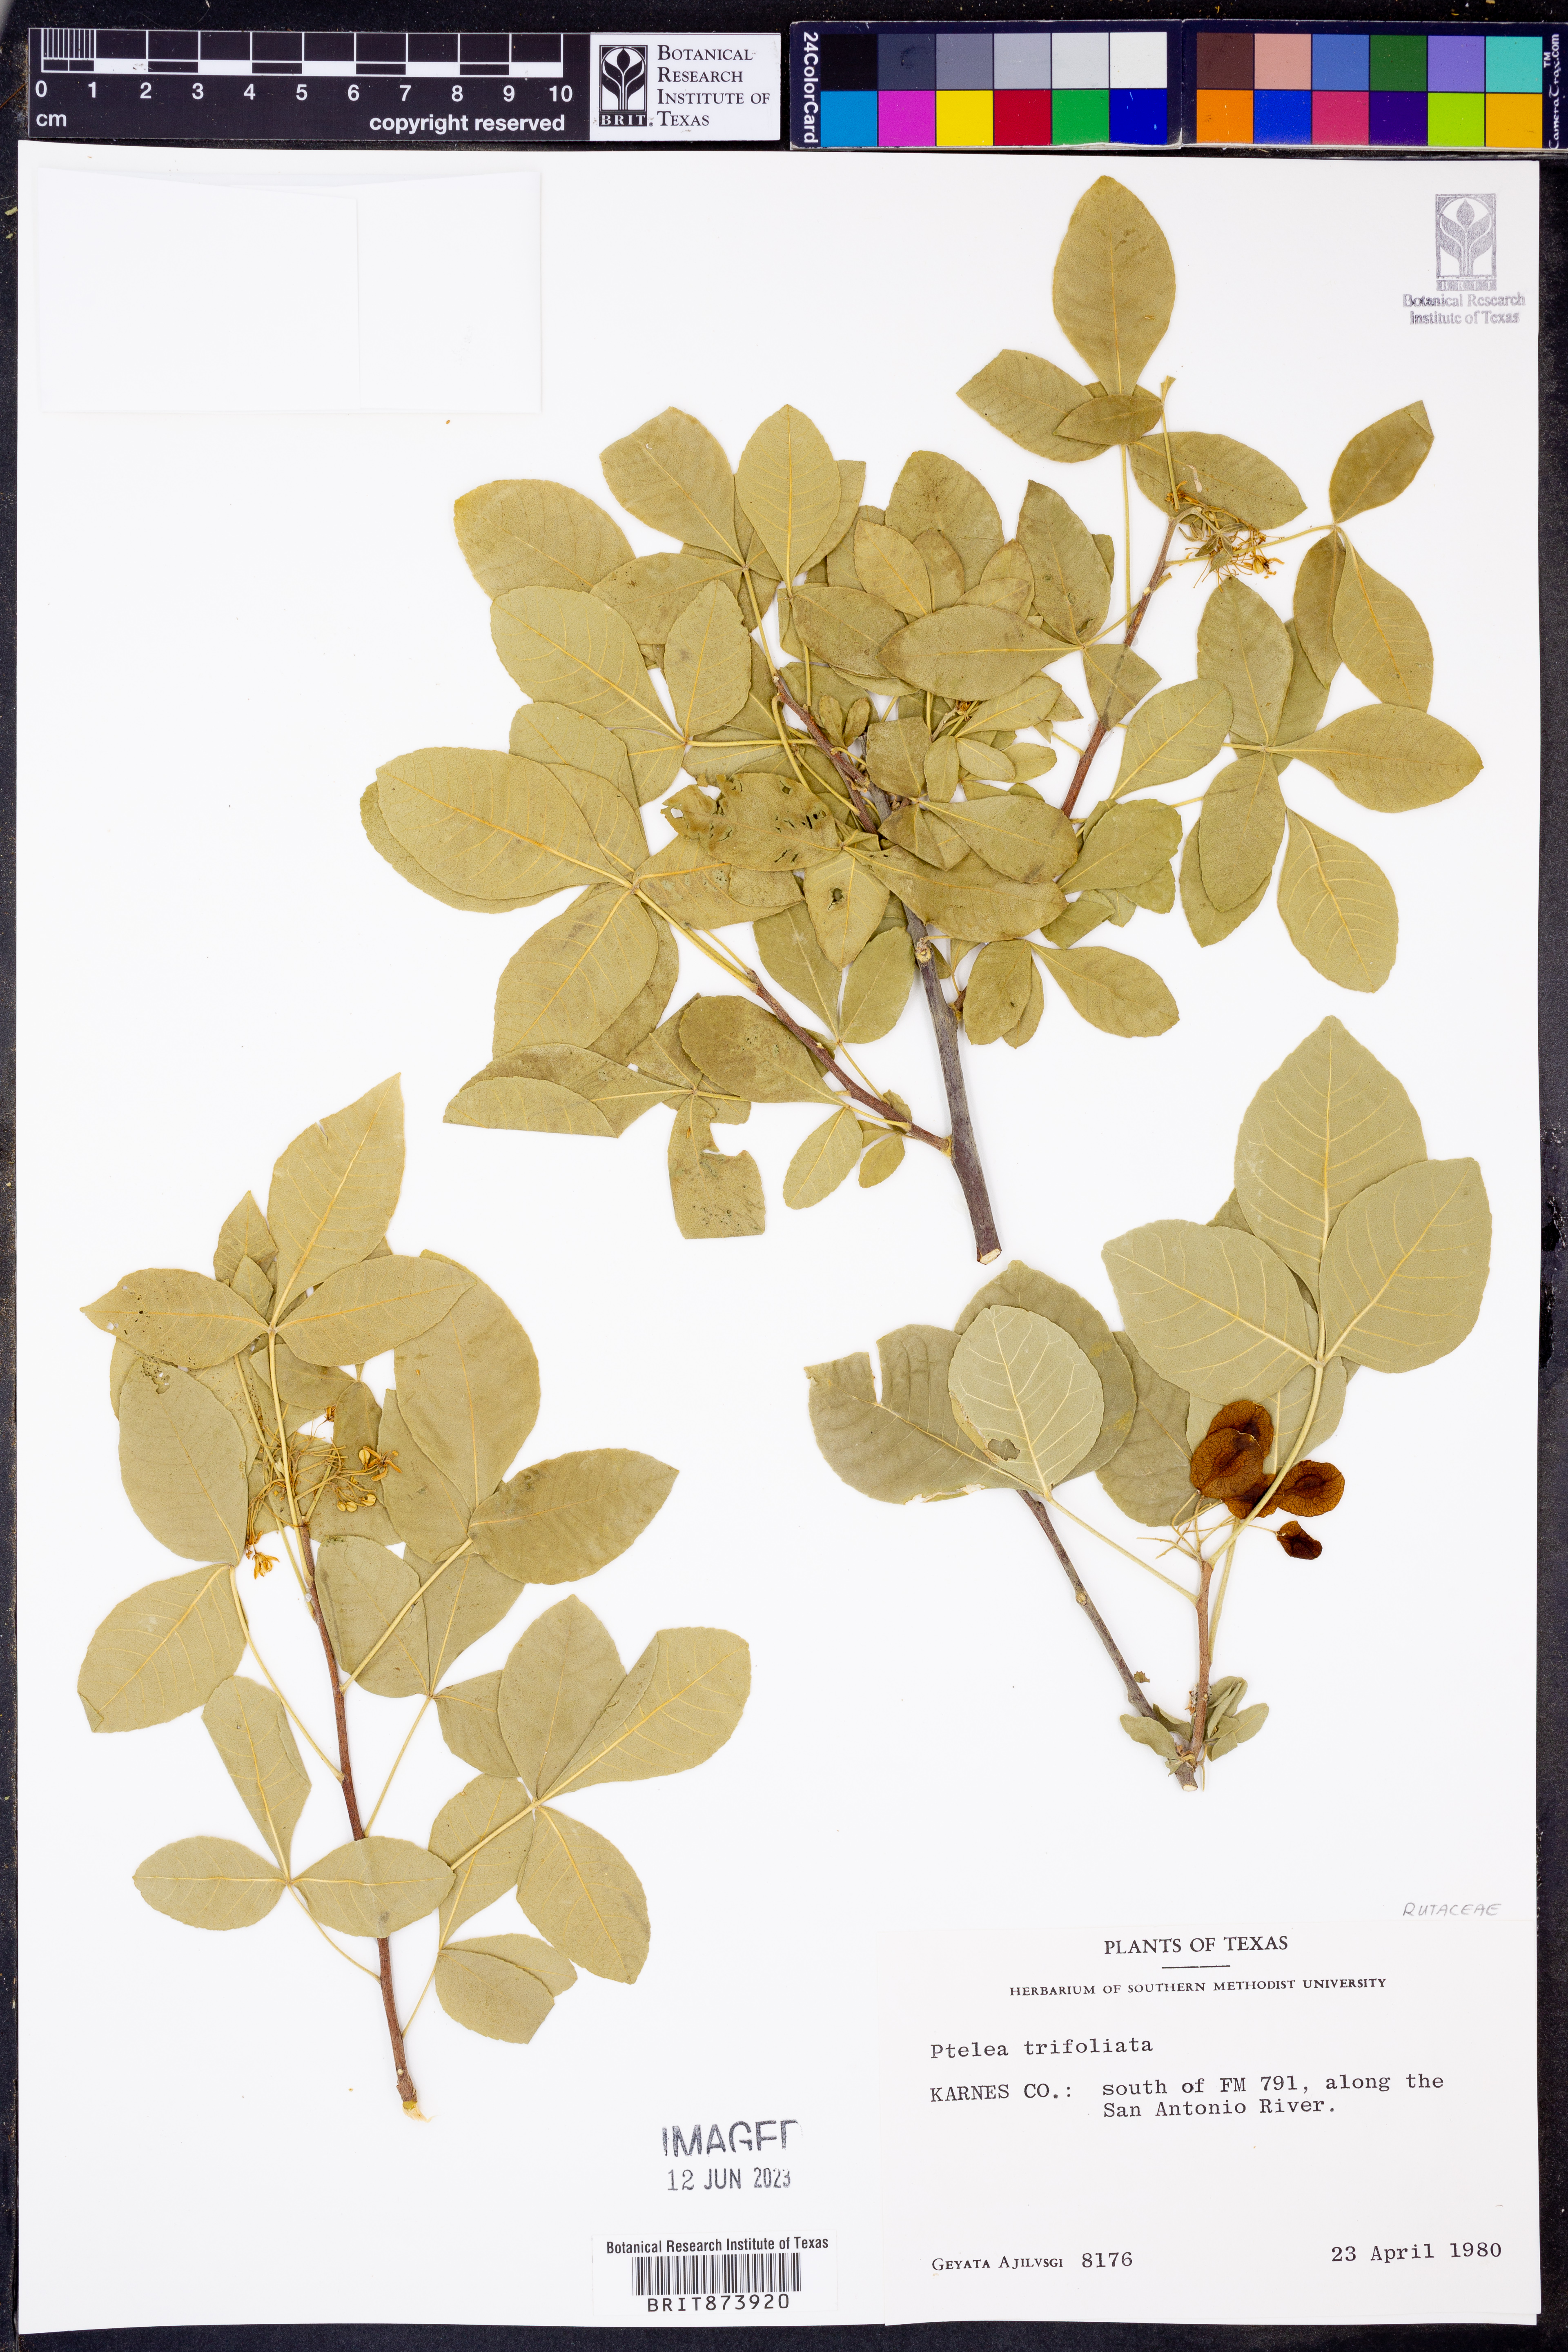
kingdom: Plantae
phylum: Tracheophyta
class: Magnoliopsida
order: Sapindales
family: Rutaceae
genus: Ptelea
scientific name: Ptelea trifoliata
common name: Common hop-tree
